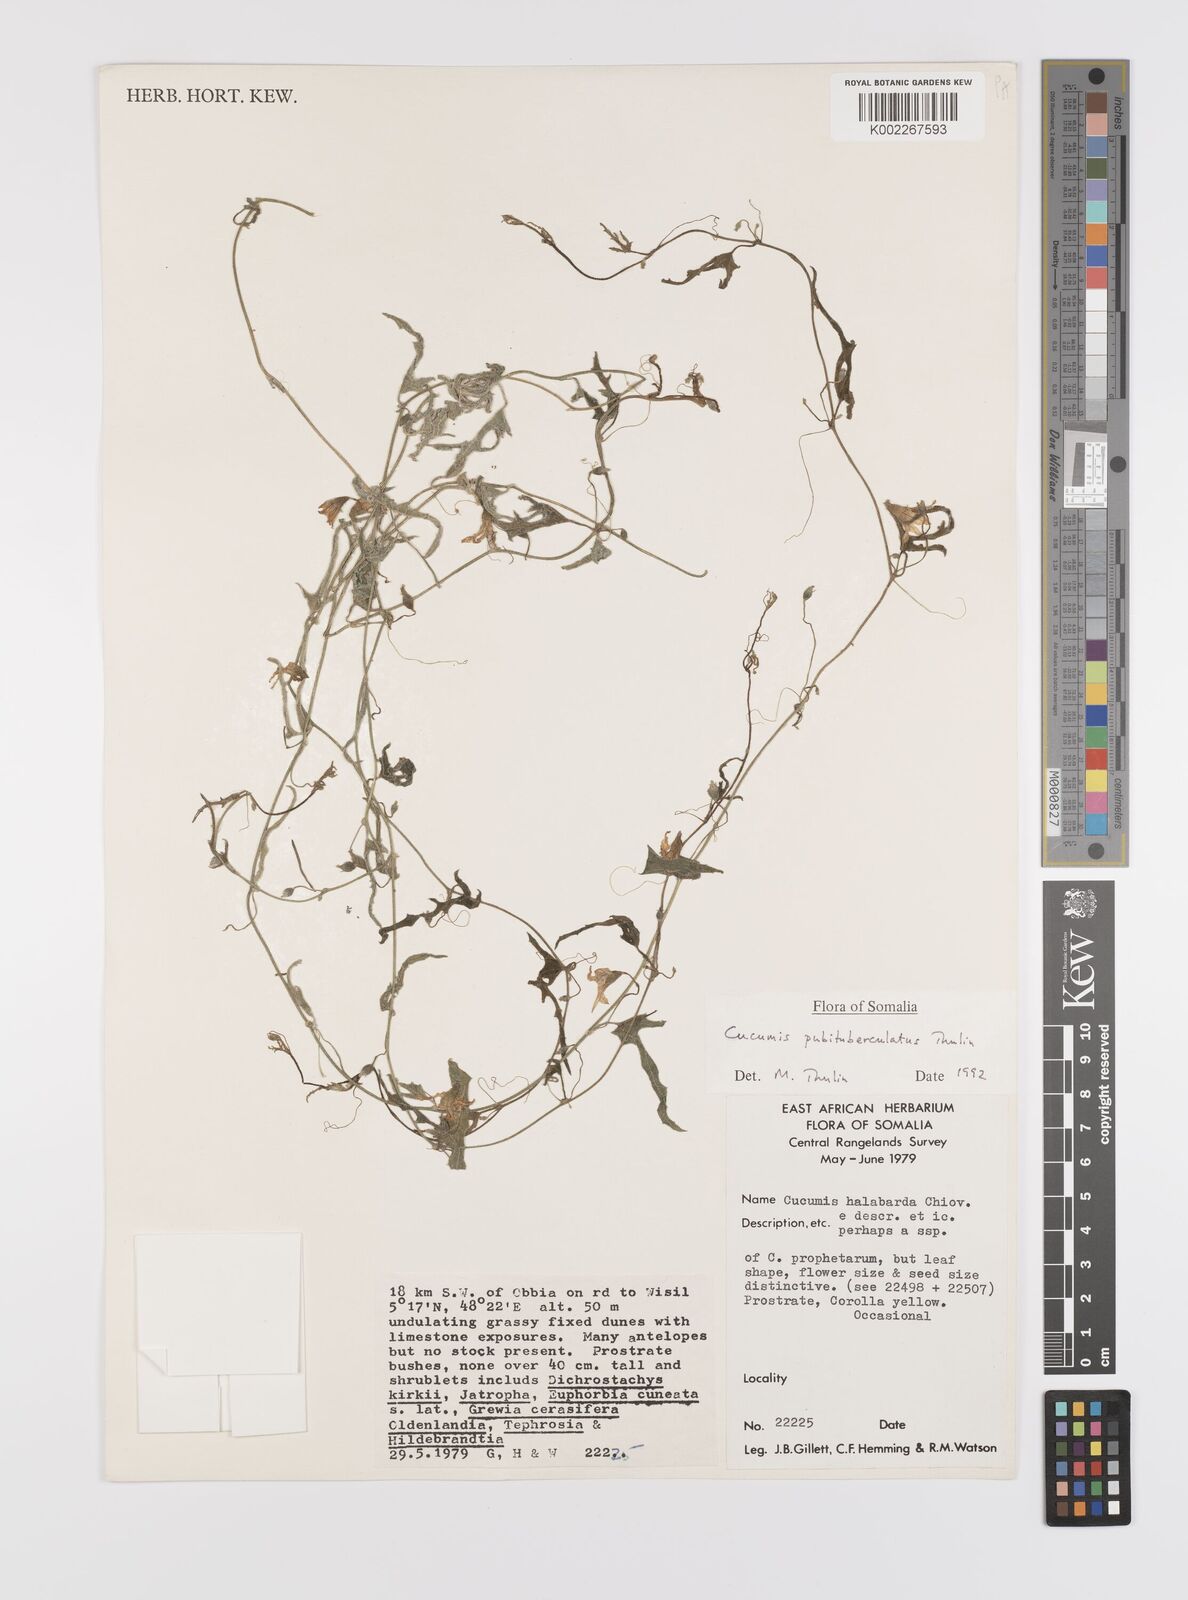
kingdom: Plantae
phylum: Tracheophyta
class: Magnoliopsida
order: Cucurbitales
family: Cucurbitaceae
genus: Cucumis
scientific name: Cucumis pubituberculatus
